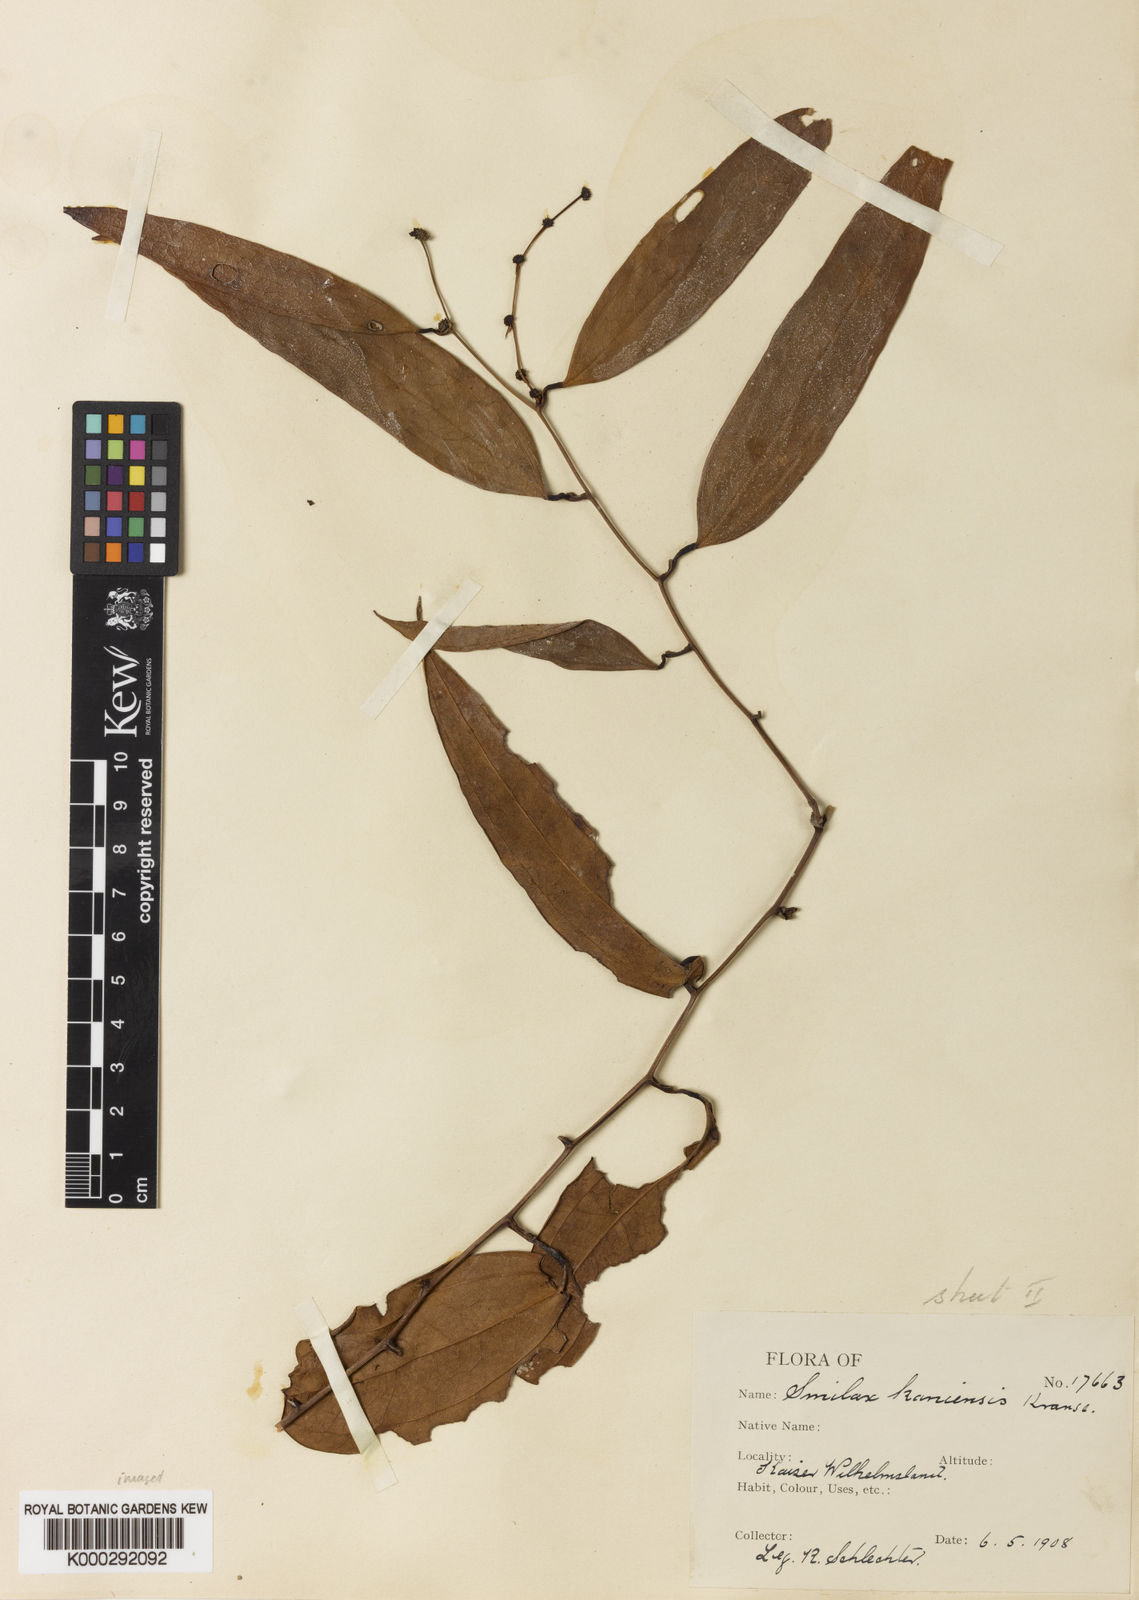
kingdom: Plantae
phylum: Tracheophyta
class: Liliopsida
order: Liliales
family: Smilacaceae
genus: Smilax
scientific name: Smilax kaniensis
